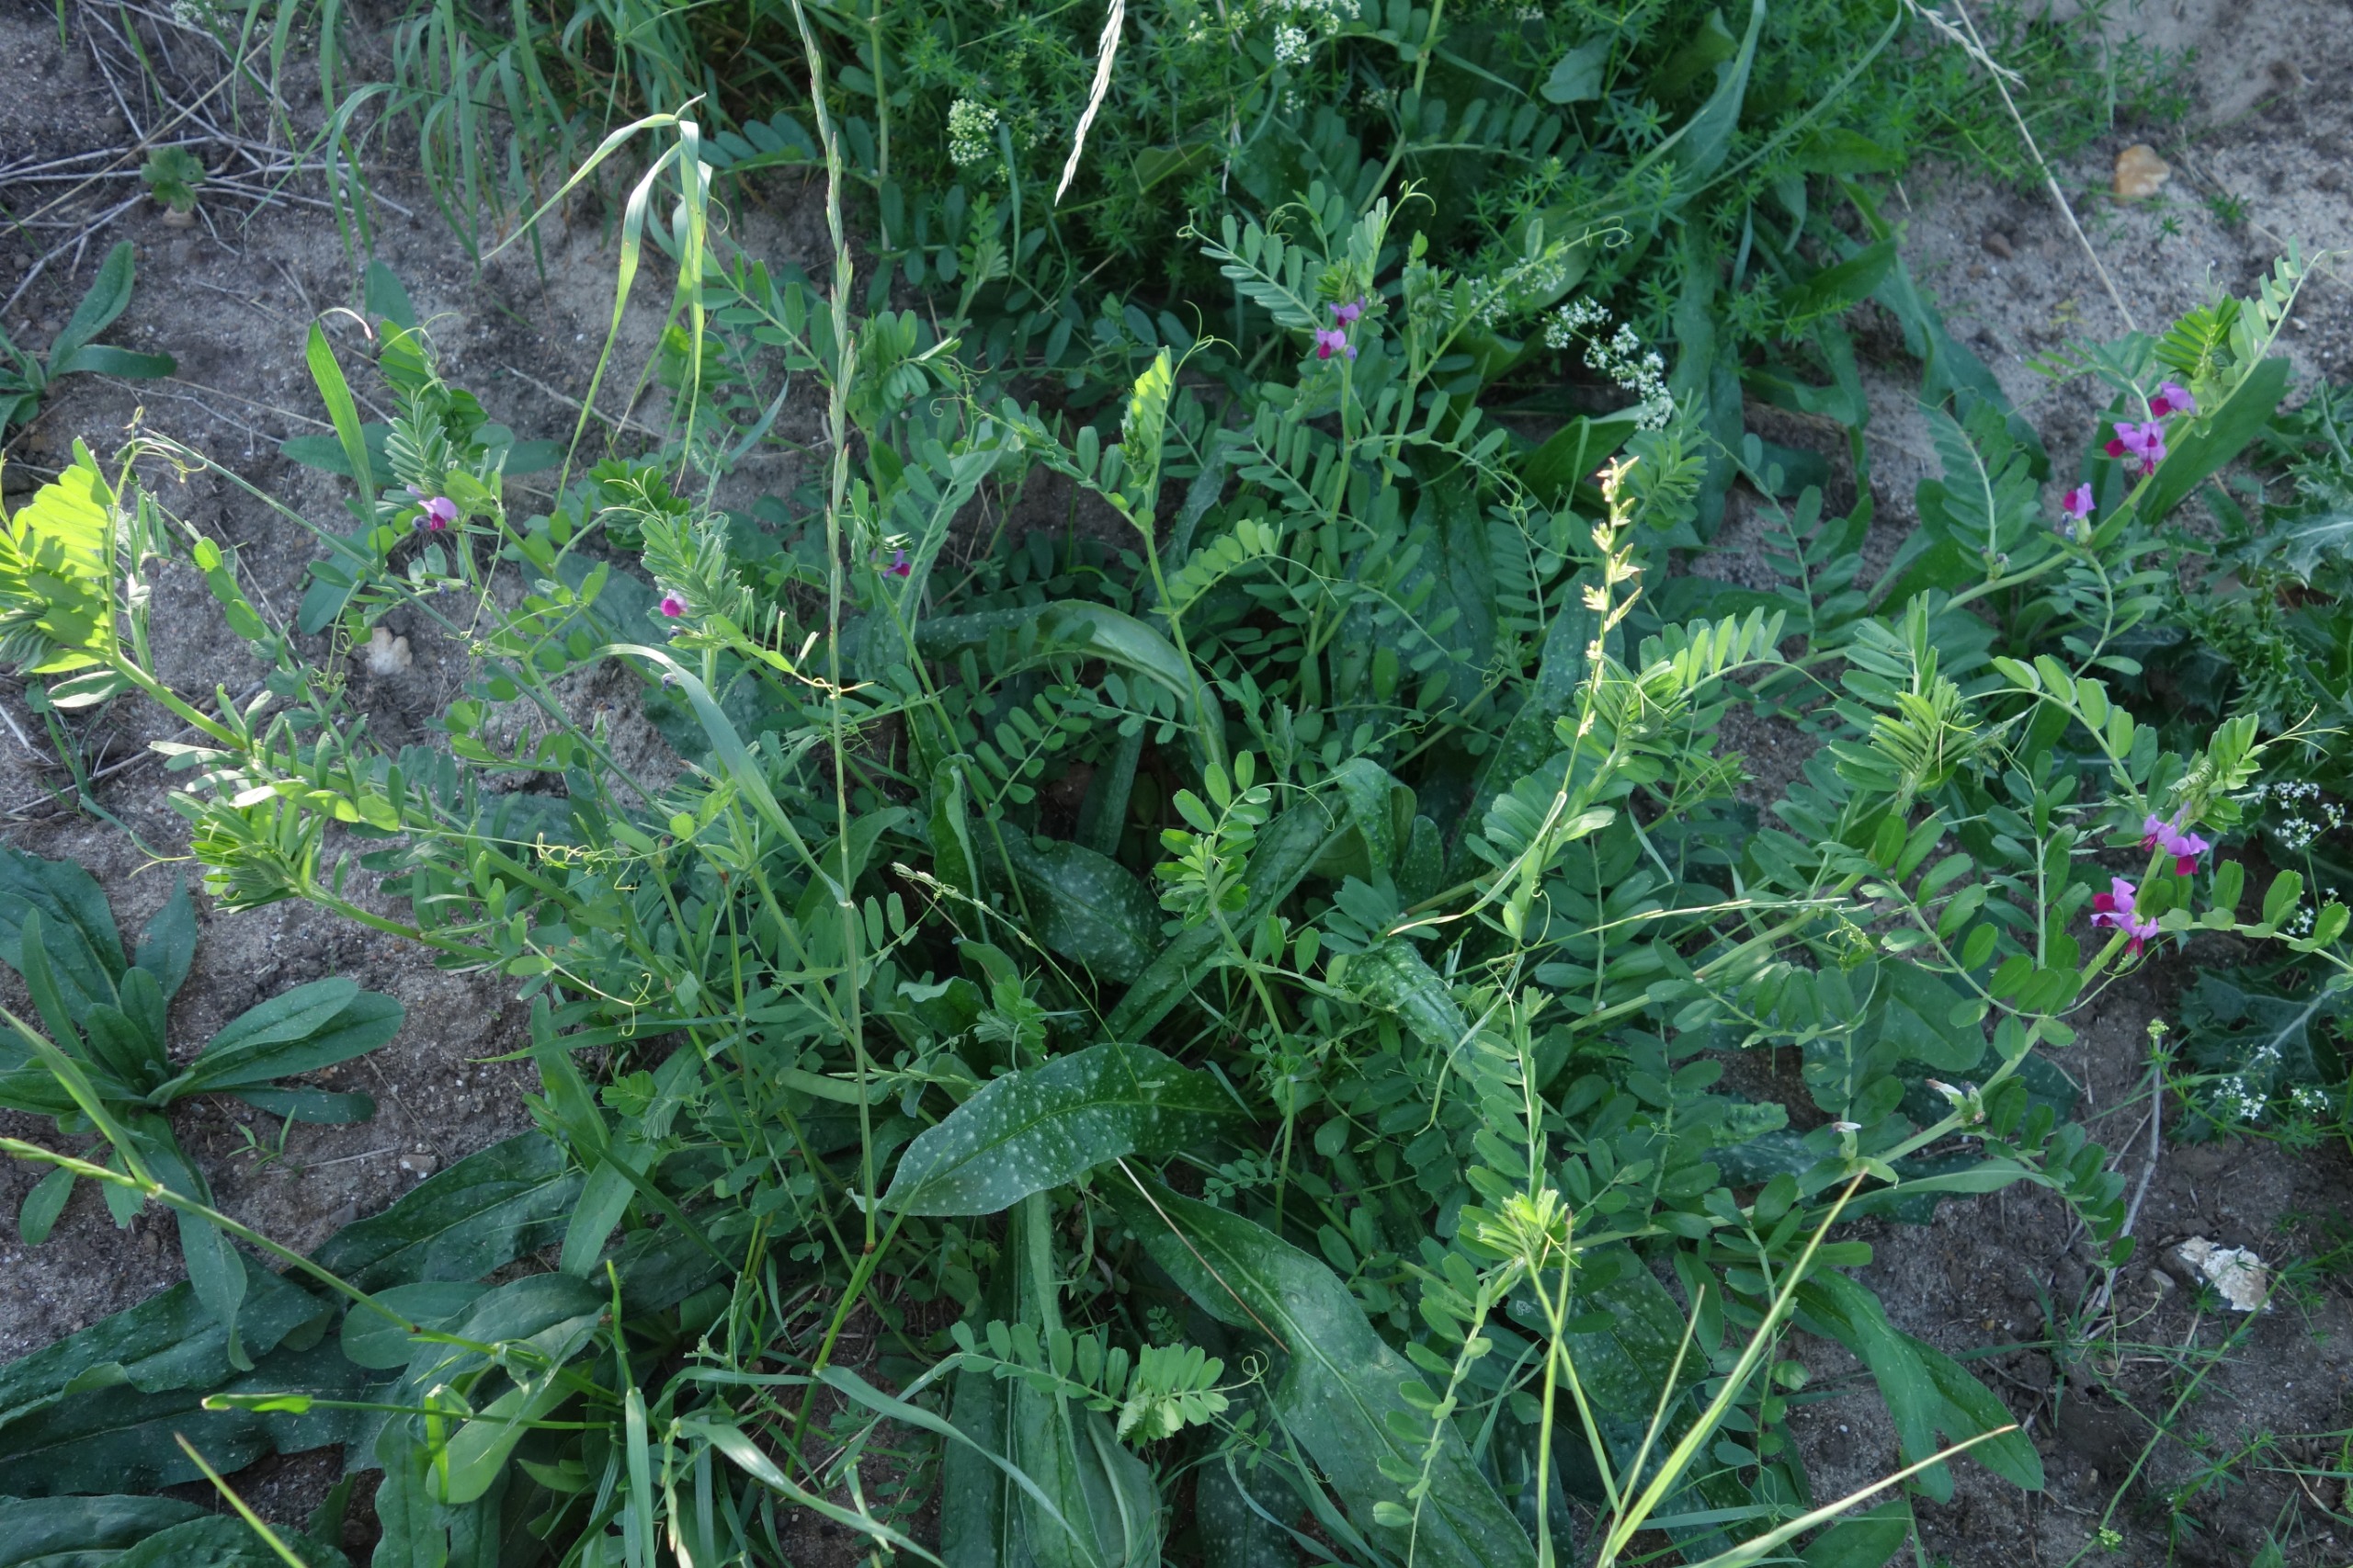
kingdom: Plantae
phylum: Tracheophyta
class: Magnoliopsida
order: Fabales
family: Fabaceae
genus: Vicia
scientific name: Vicia sativa
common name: Foder-vikke
